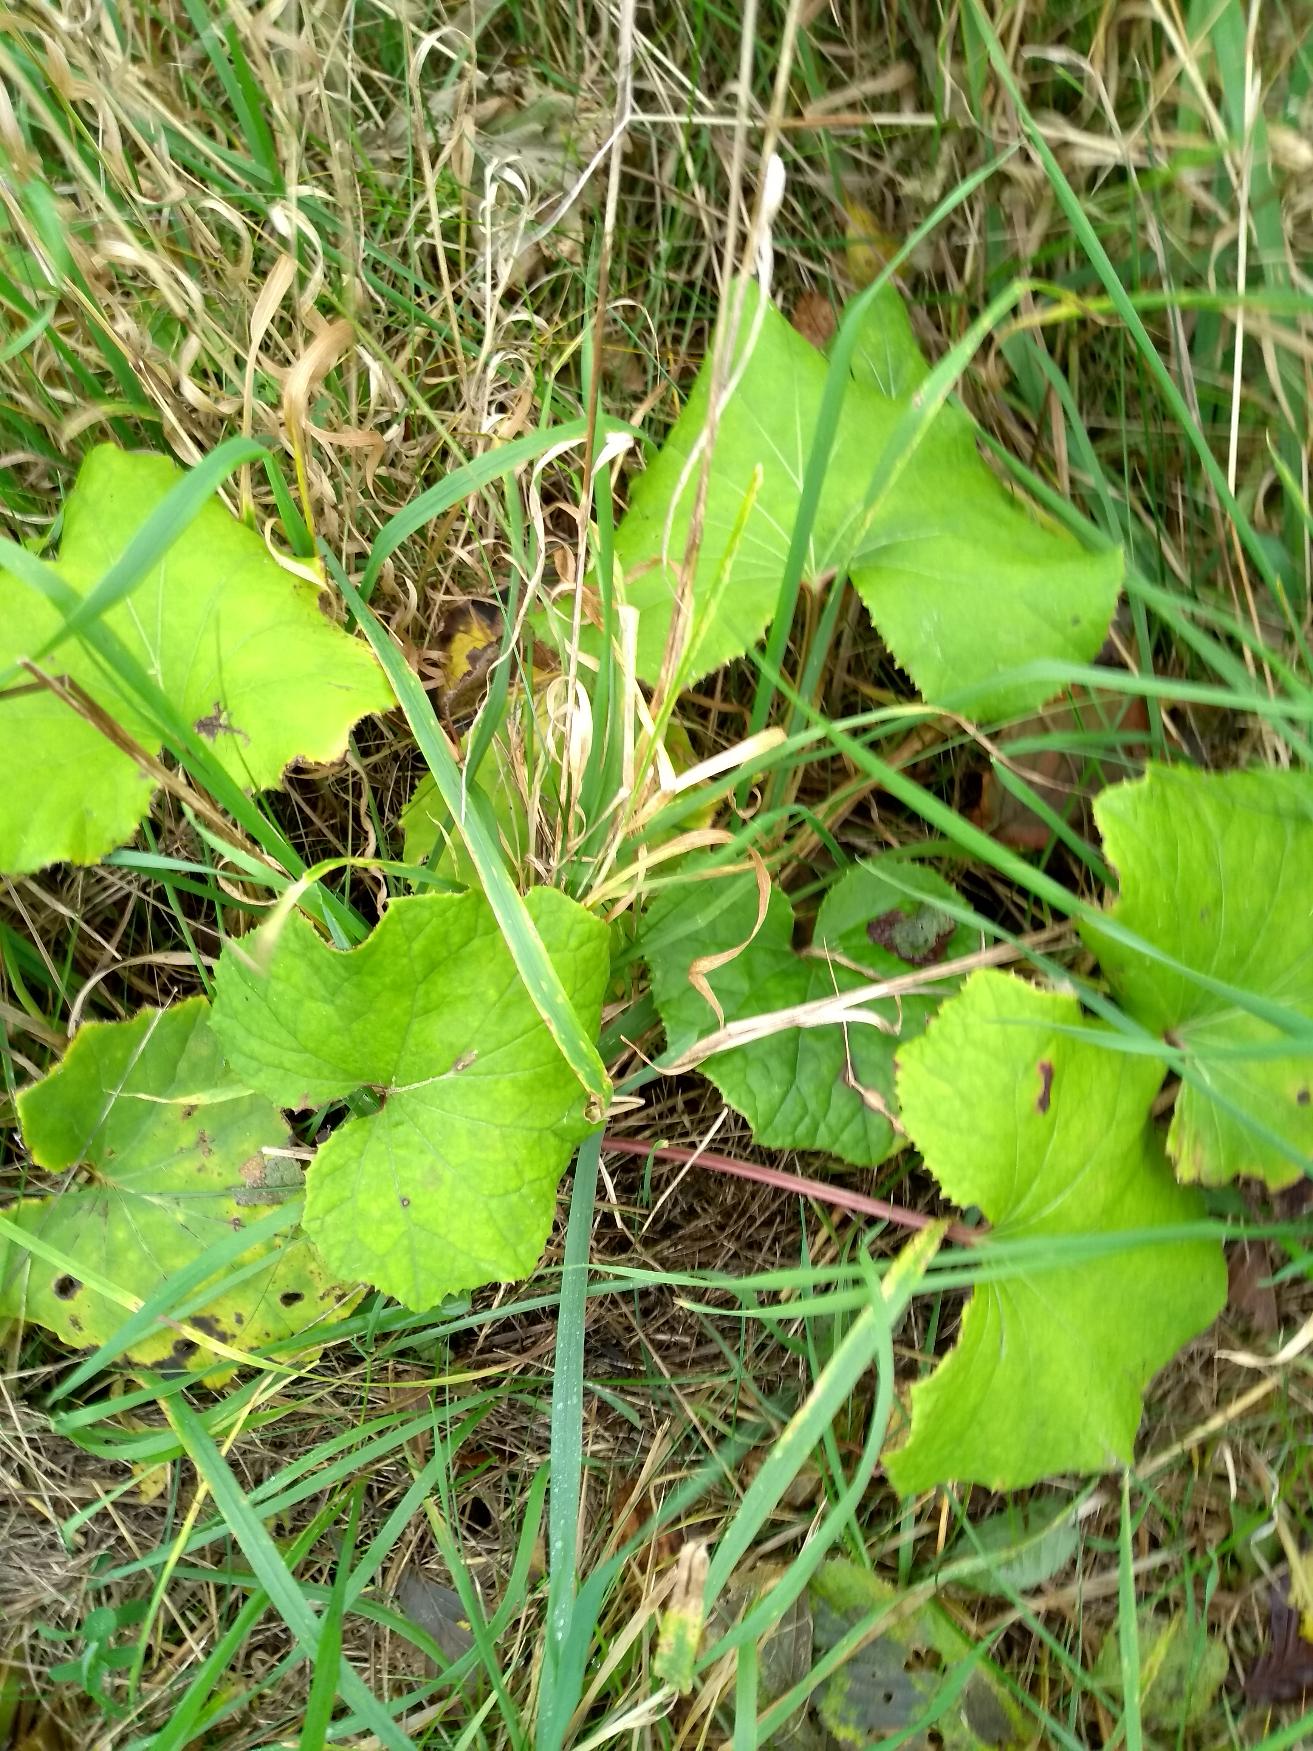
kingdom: Plantae
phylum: Tracheophyta
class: Magnoliopsida
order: Asterales
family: Asteraceae
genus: Tussilago
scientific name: Tussilago farfara
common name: Følfod
